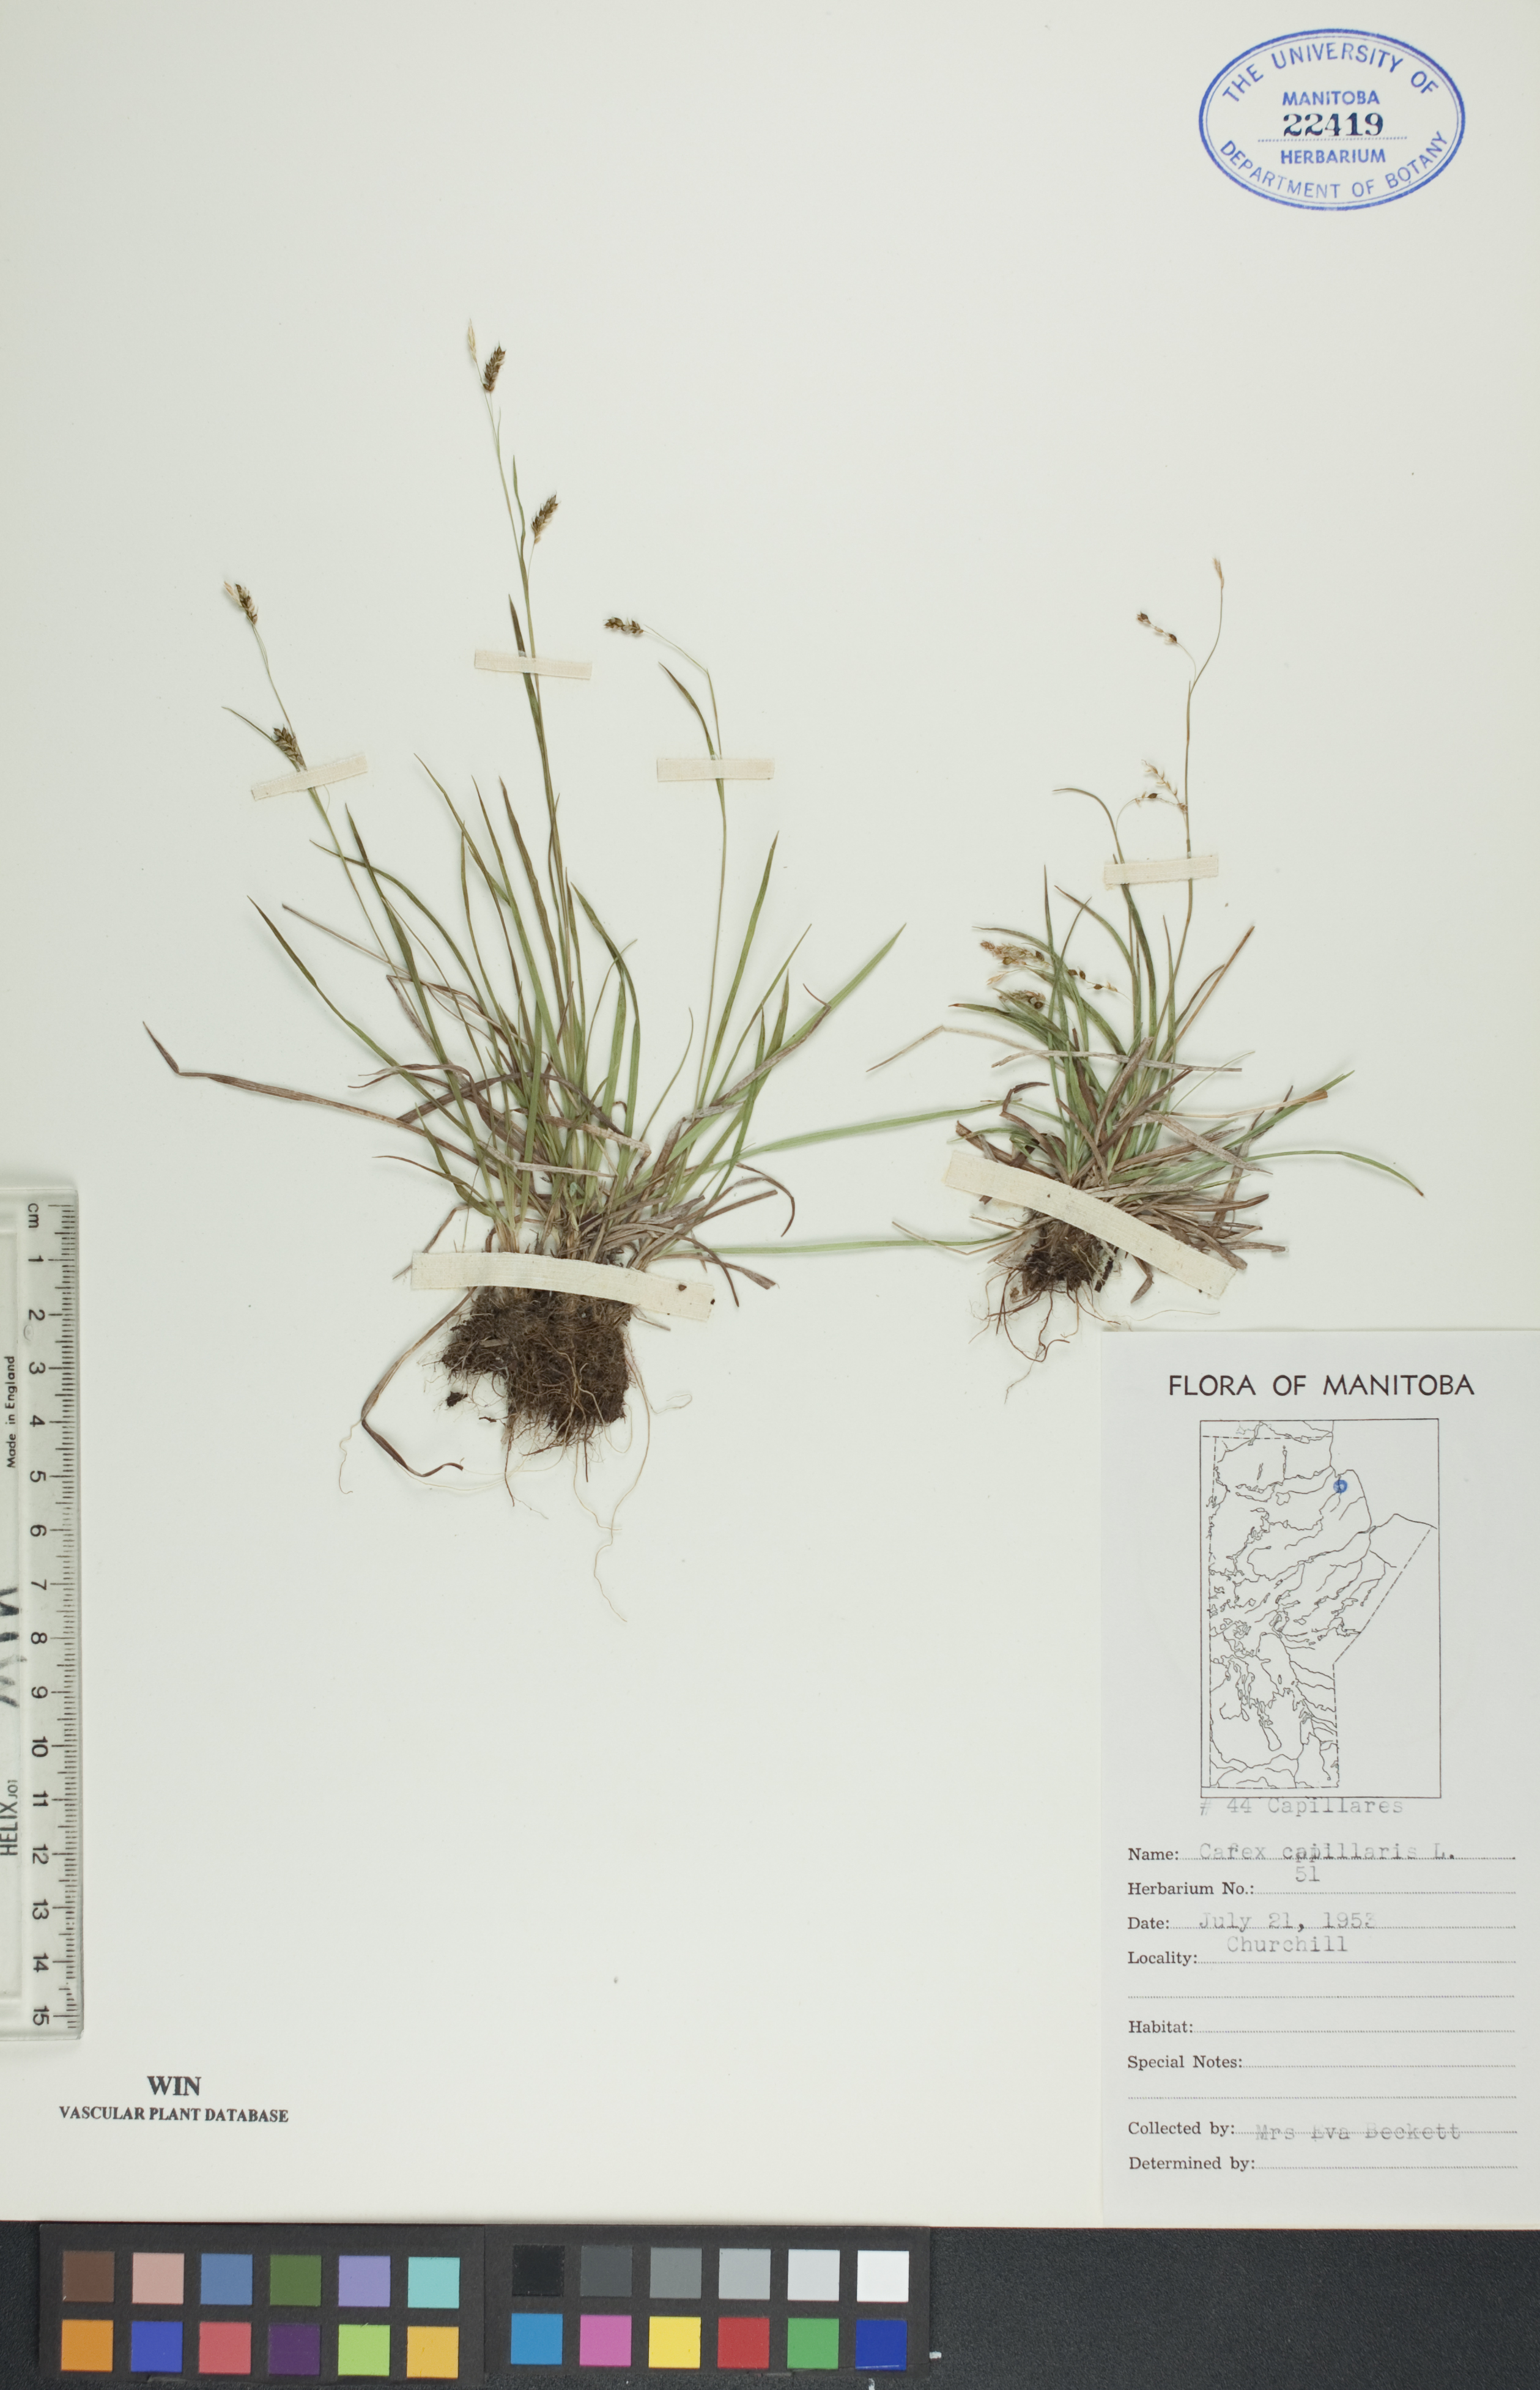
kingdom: Plantae
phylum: Tracheophyta
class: Liliopsida
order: Poales
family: Cyperaceae
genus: Carex
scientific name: Carex capillaris
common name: Hair sedge
